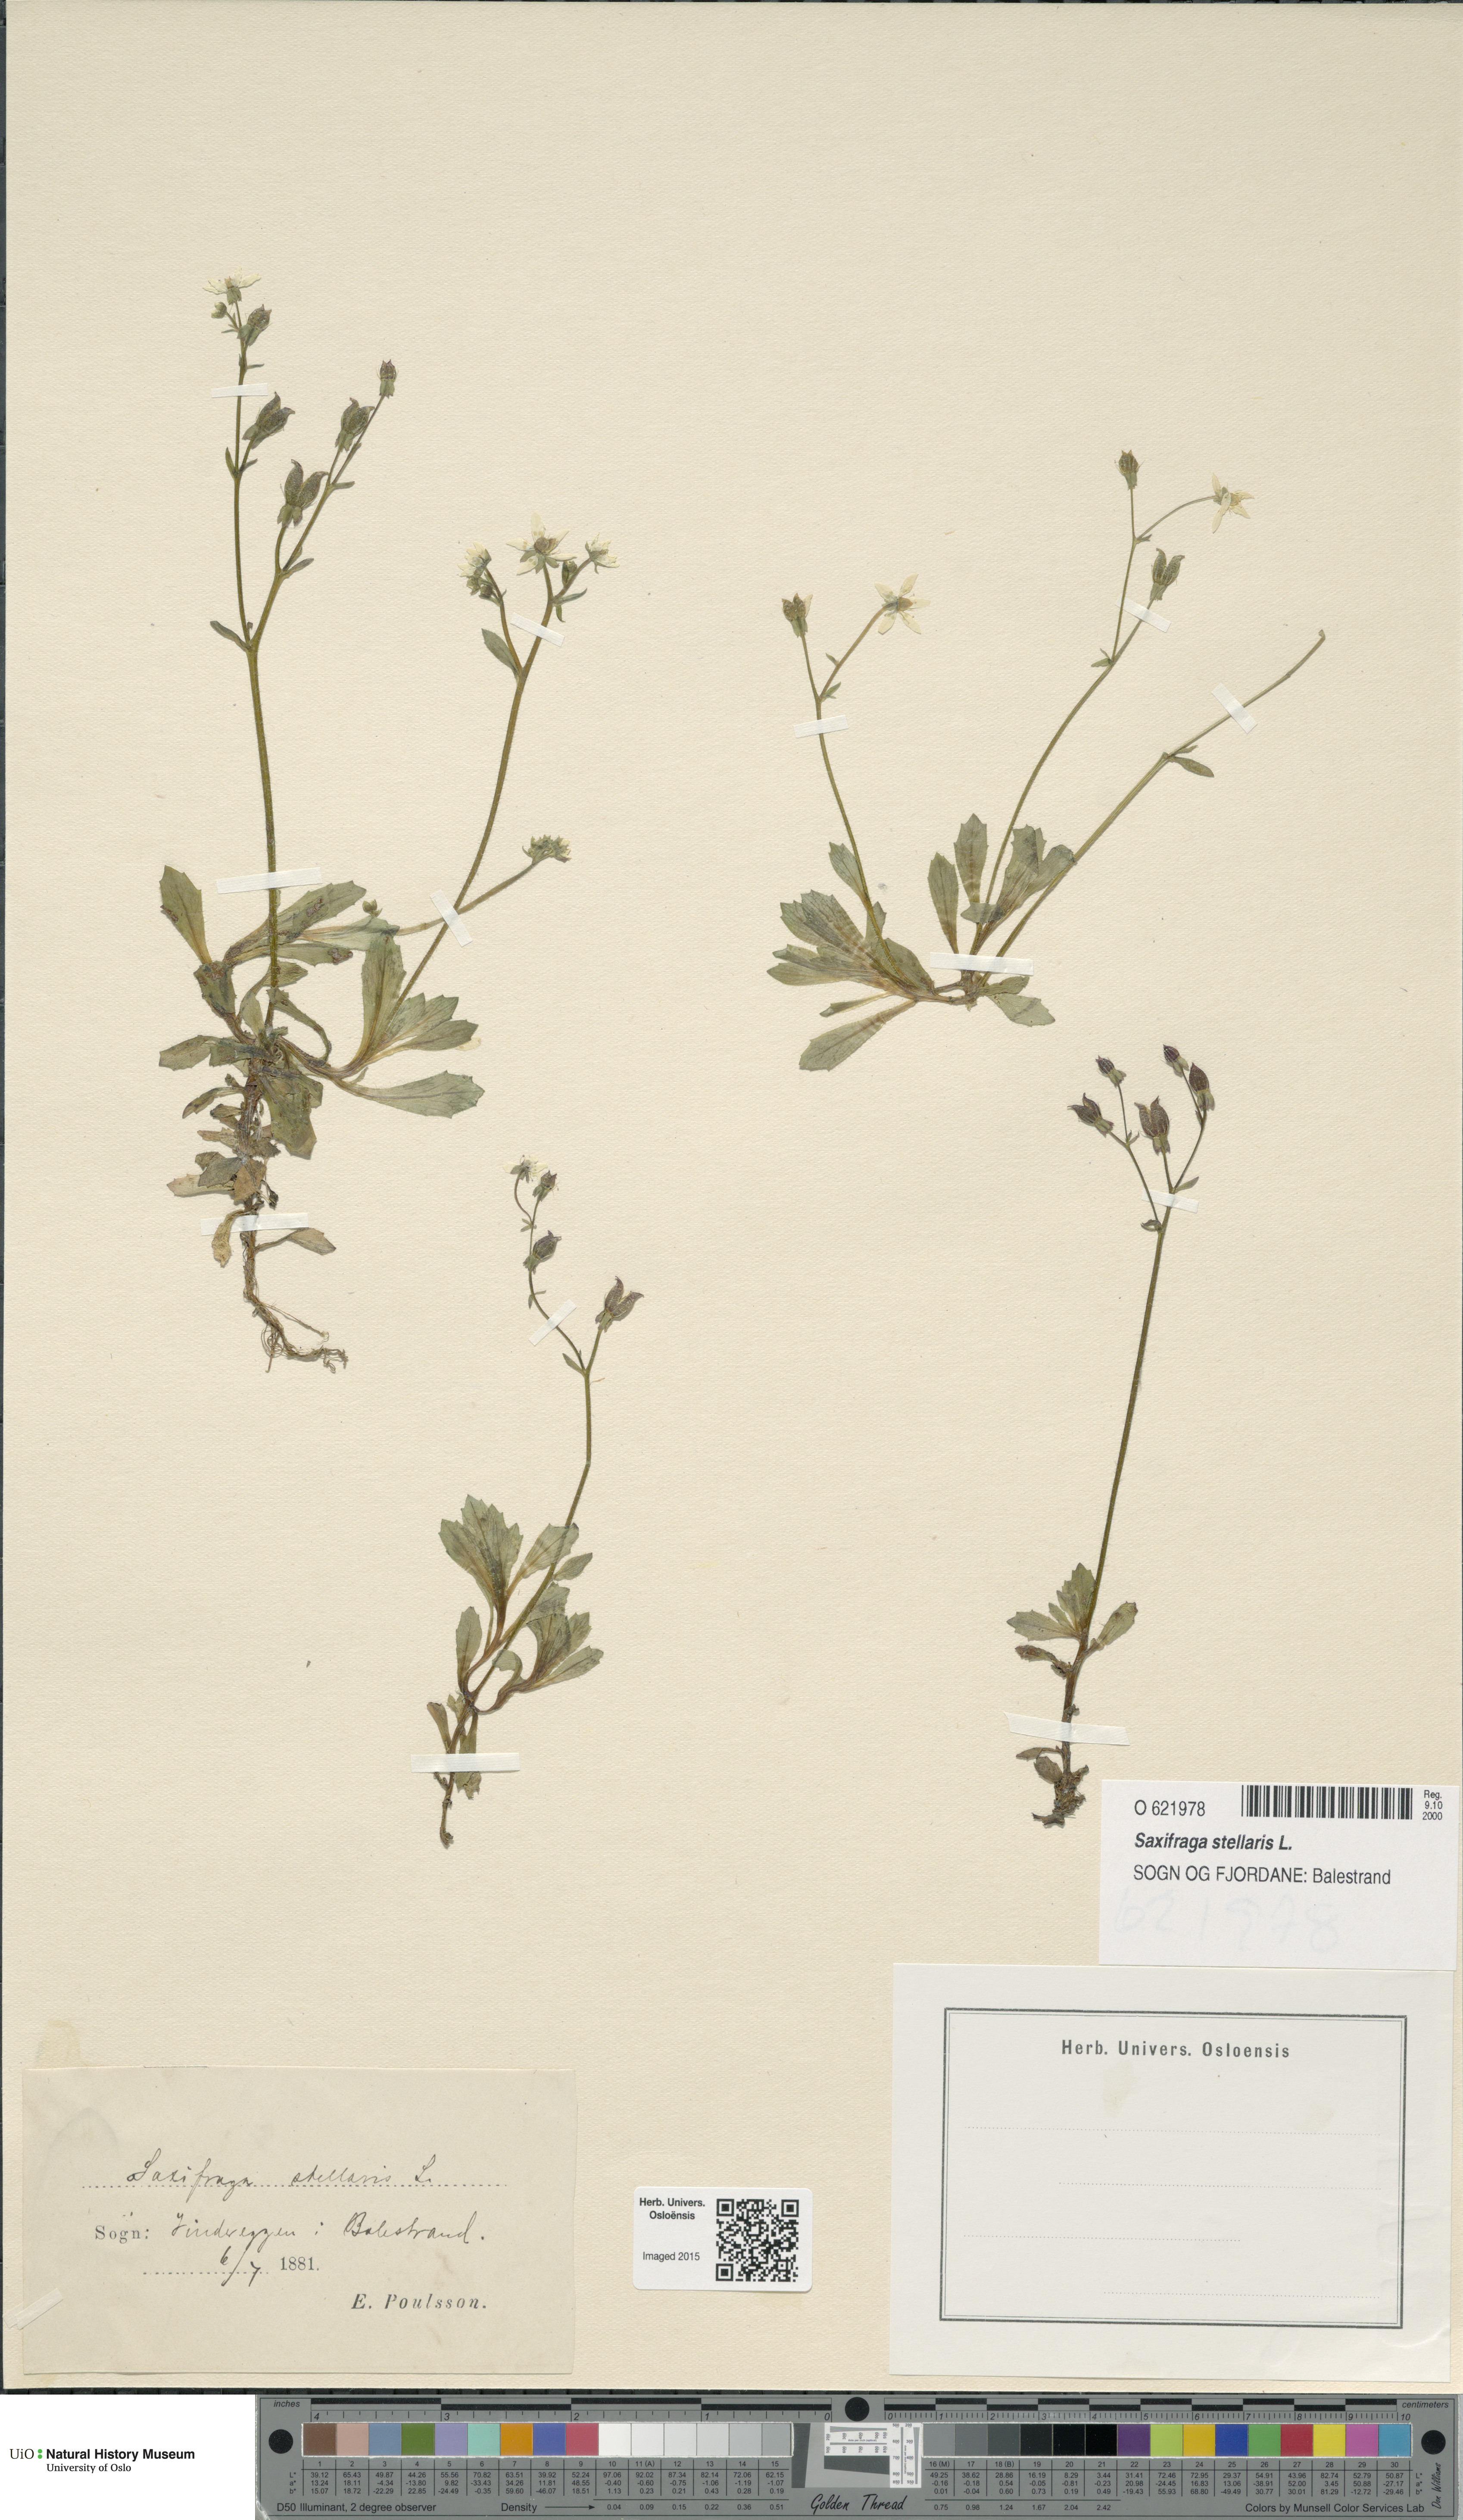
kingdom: Plantae
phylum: Tracheophyta
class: Magnoliopsida
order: Saxifragales
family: Saxifragaceae
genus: Micranthes
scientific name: Micranthes stellaris
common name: Starry saxifrage
